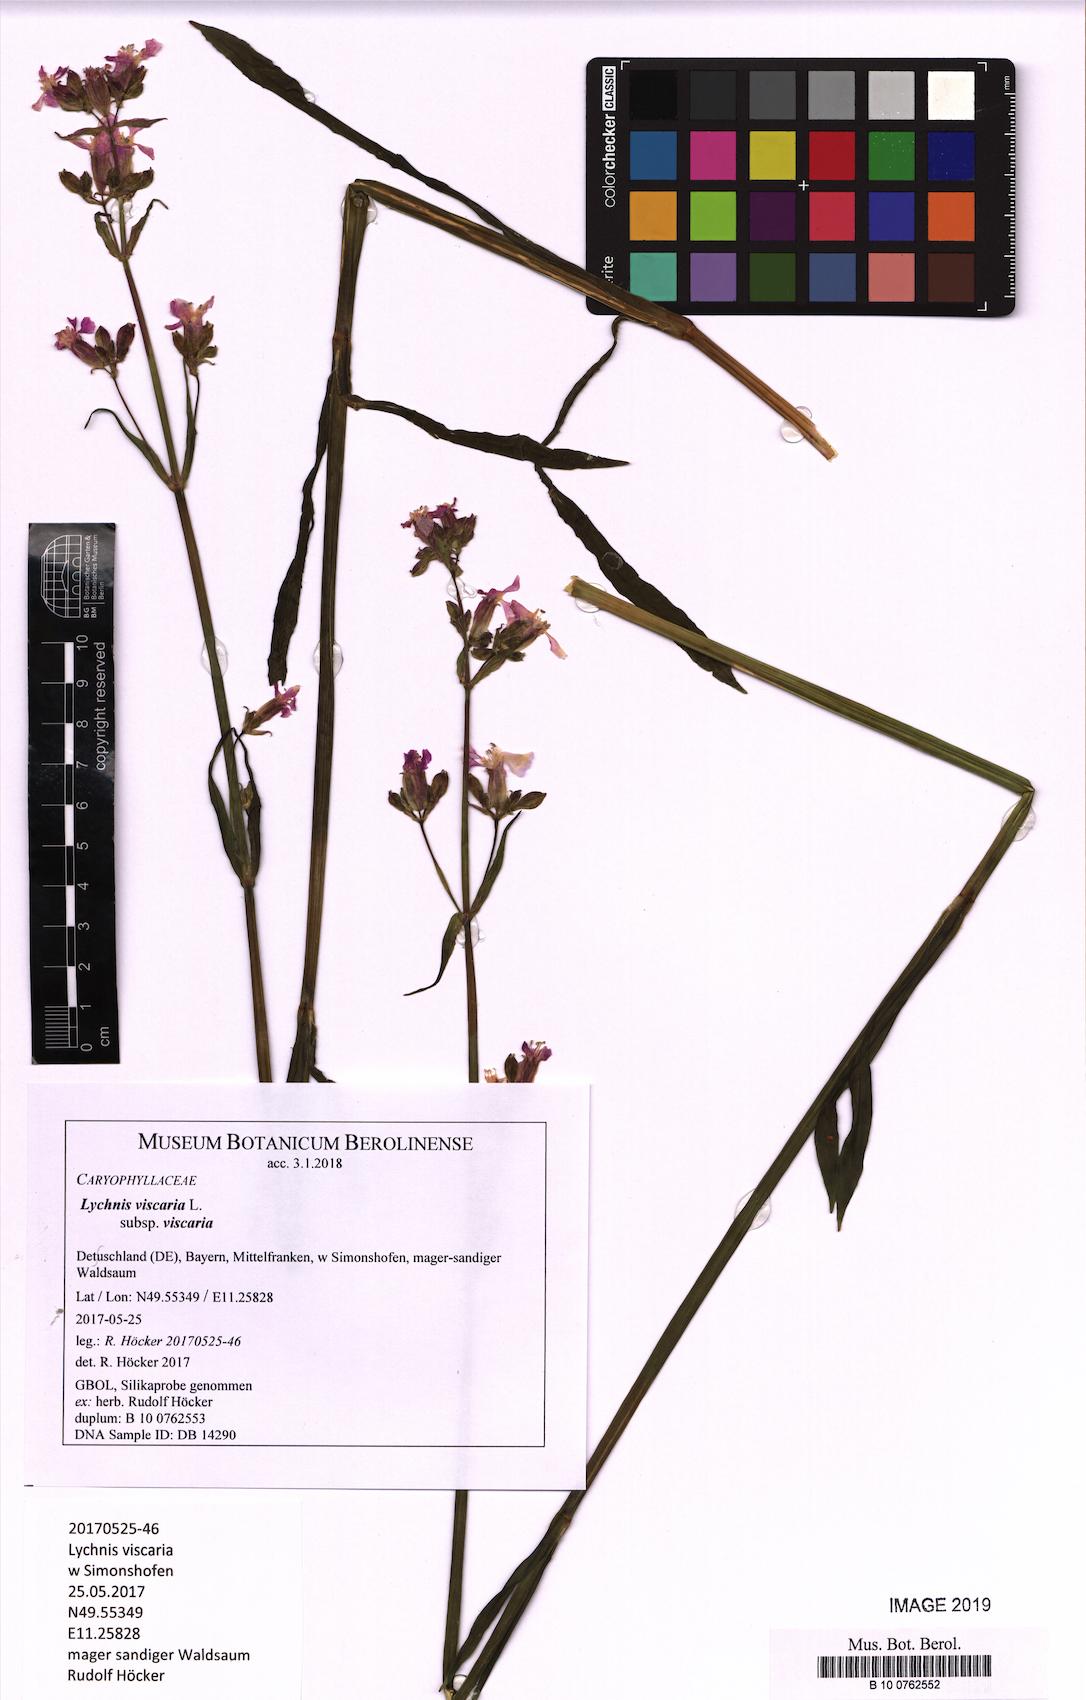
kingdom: Plantae
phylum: Tracheophyta
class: Magnoliopsida
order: Caryophyllales
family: Caryophyllaceae
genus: Viscaria
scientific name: Viscaria vulgaris
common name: Clammy campion
